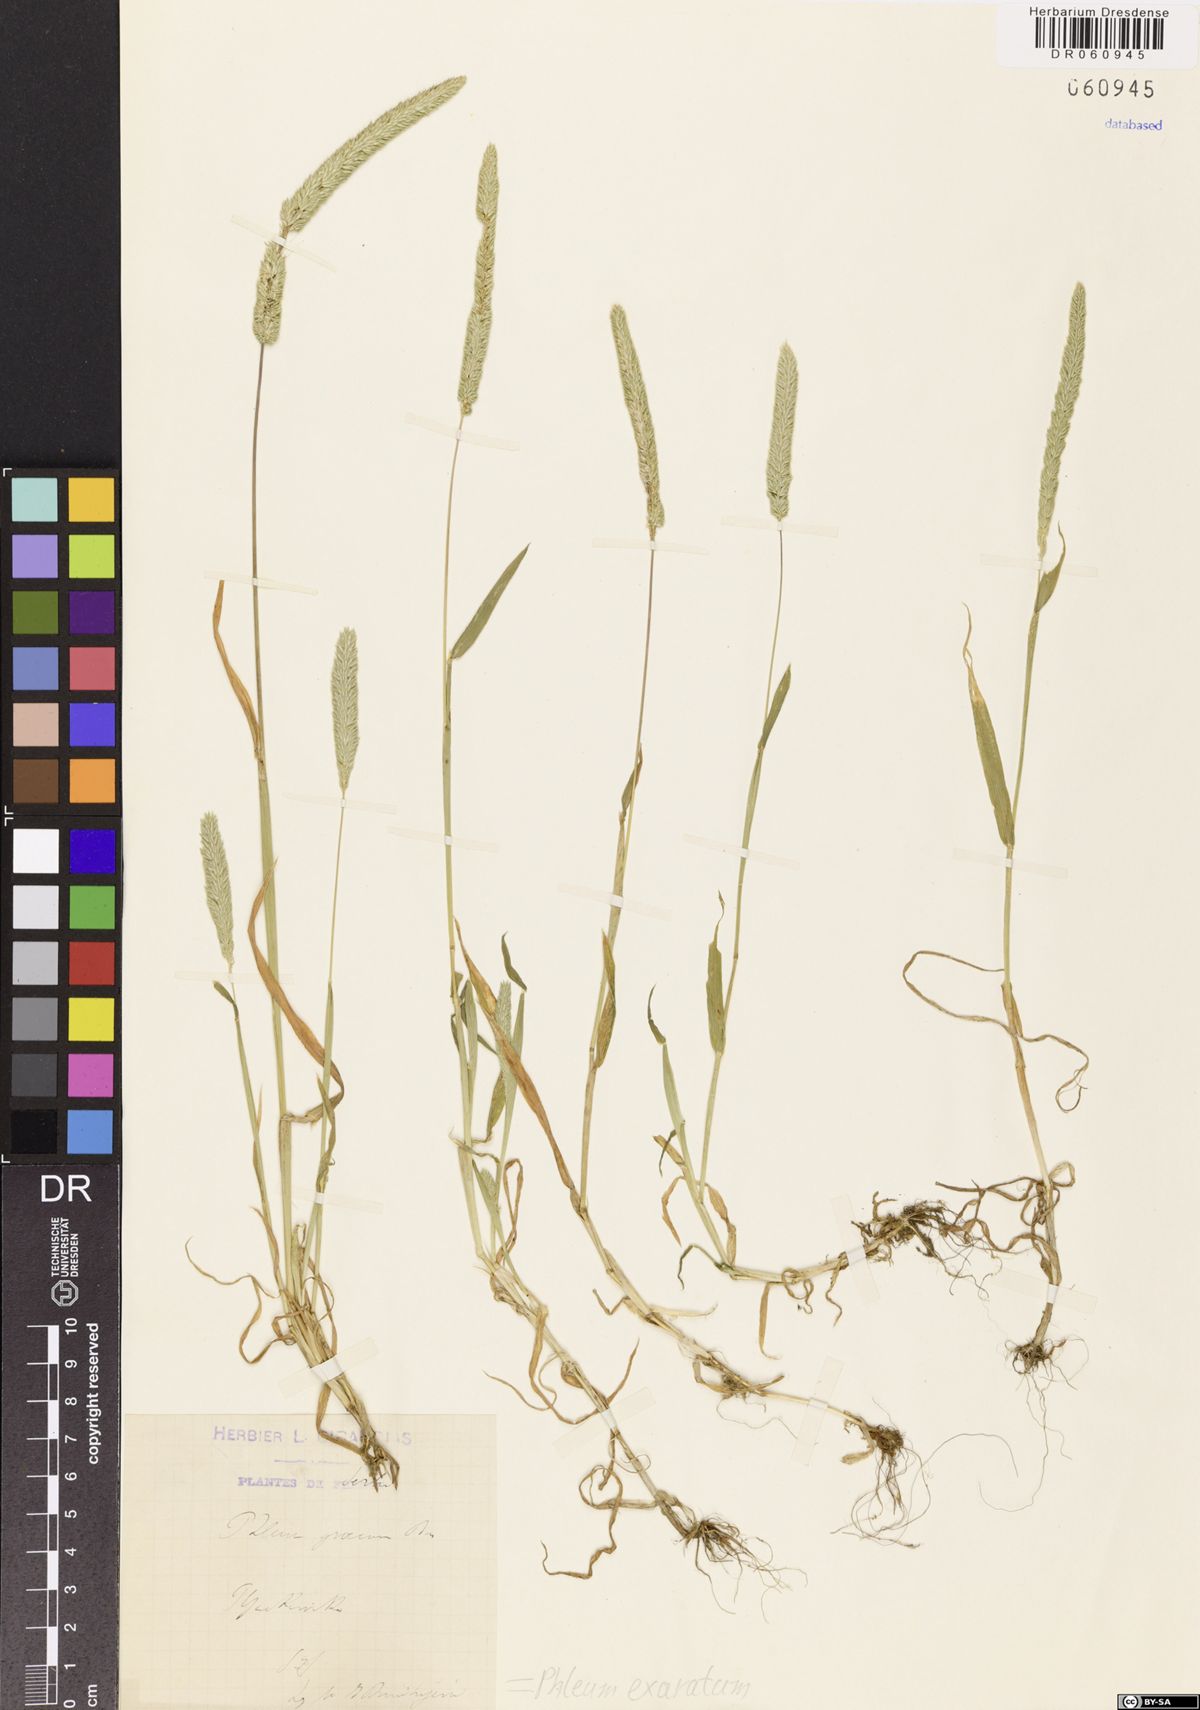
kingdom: Plantae
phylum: Tracheophyta
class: Liliopsida
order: Poales
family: Poaceae
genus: Phleum
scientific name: Phleum exaratum
